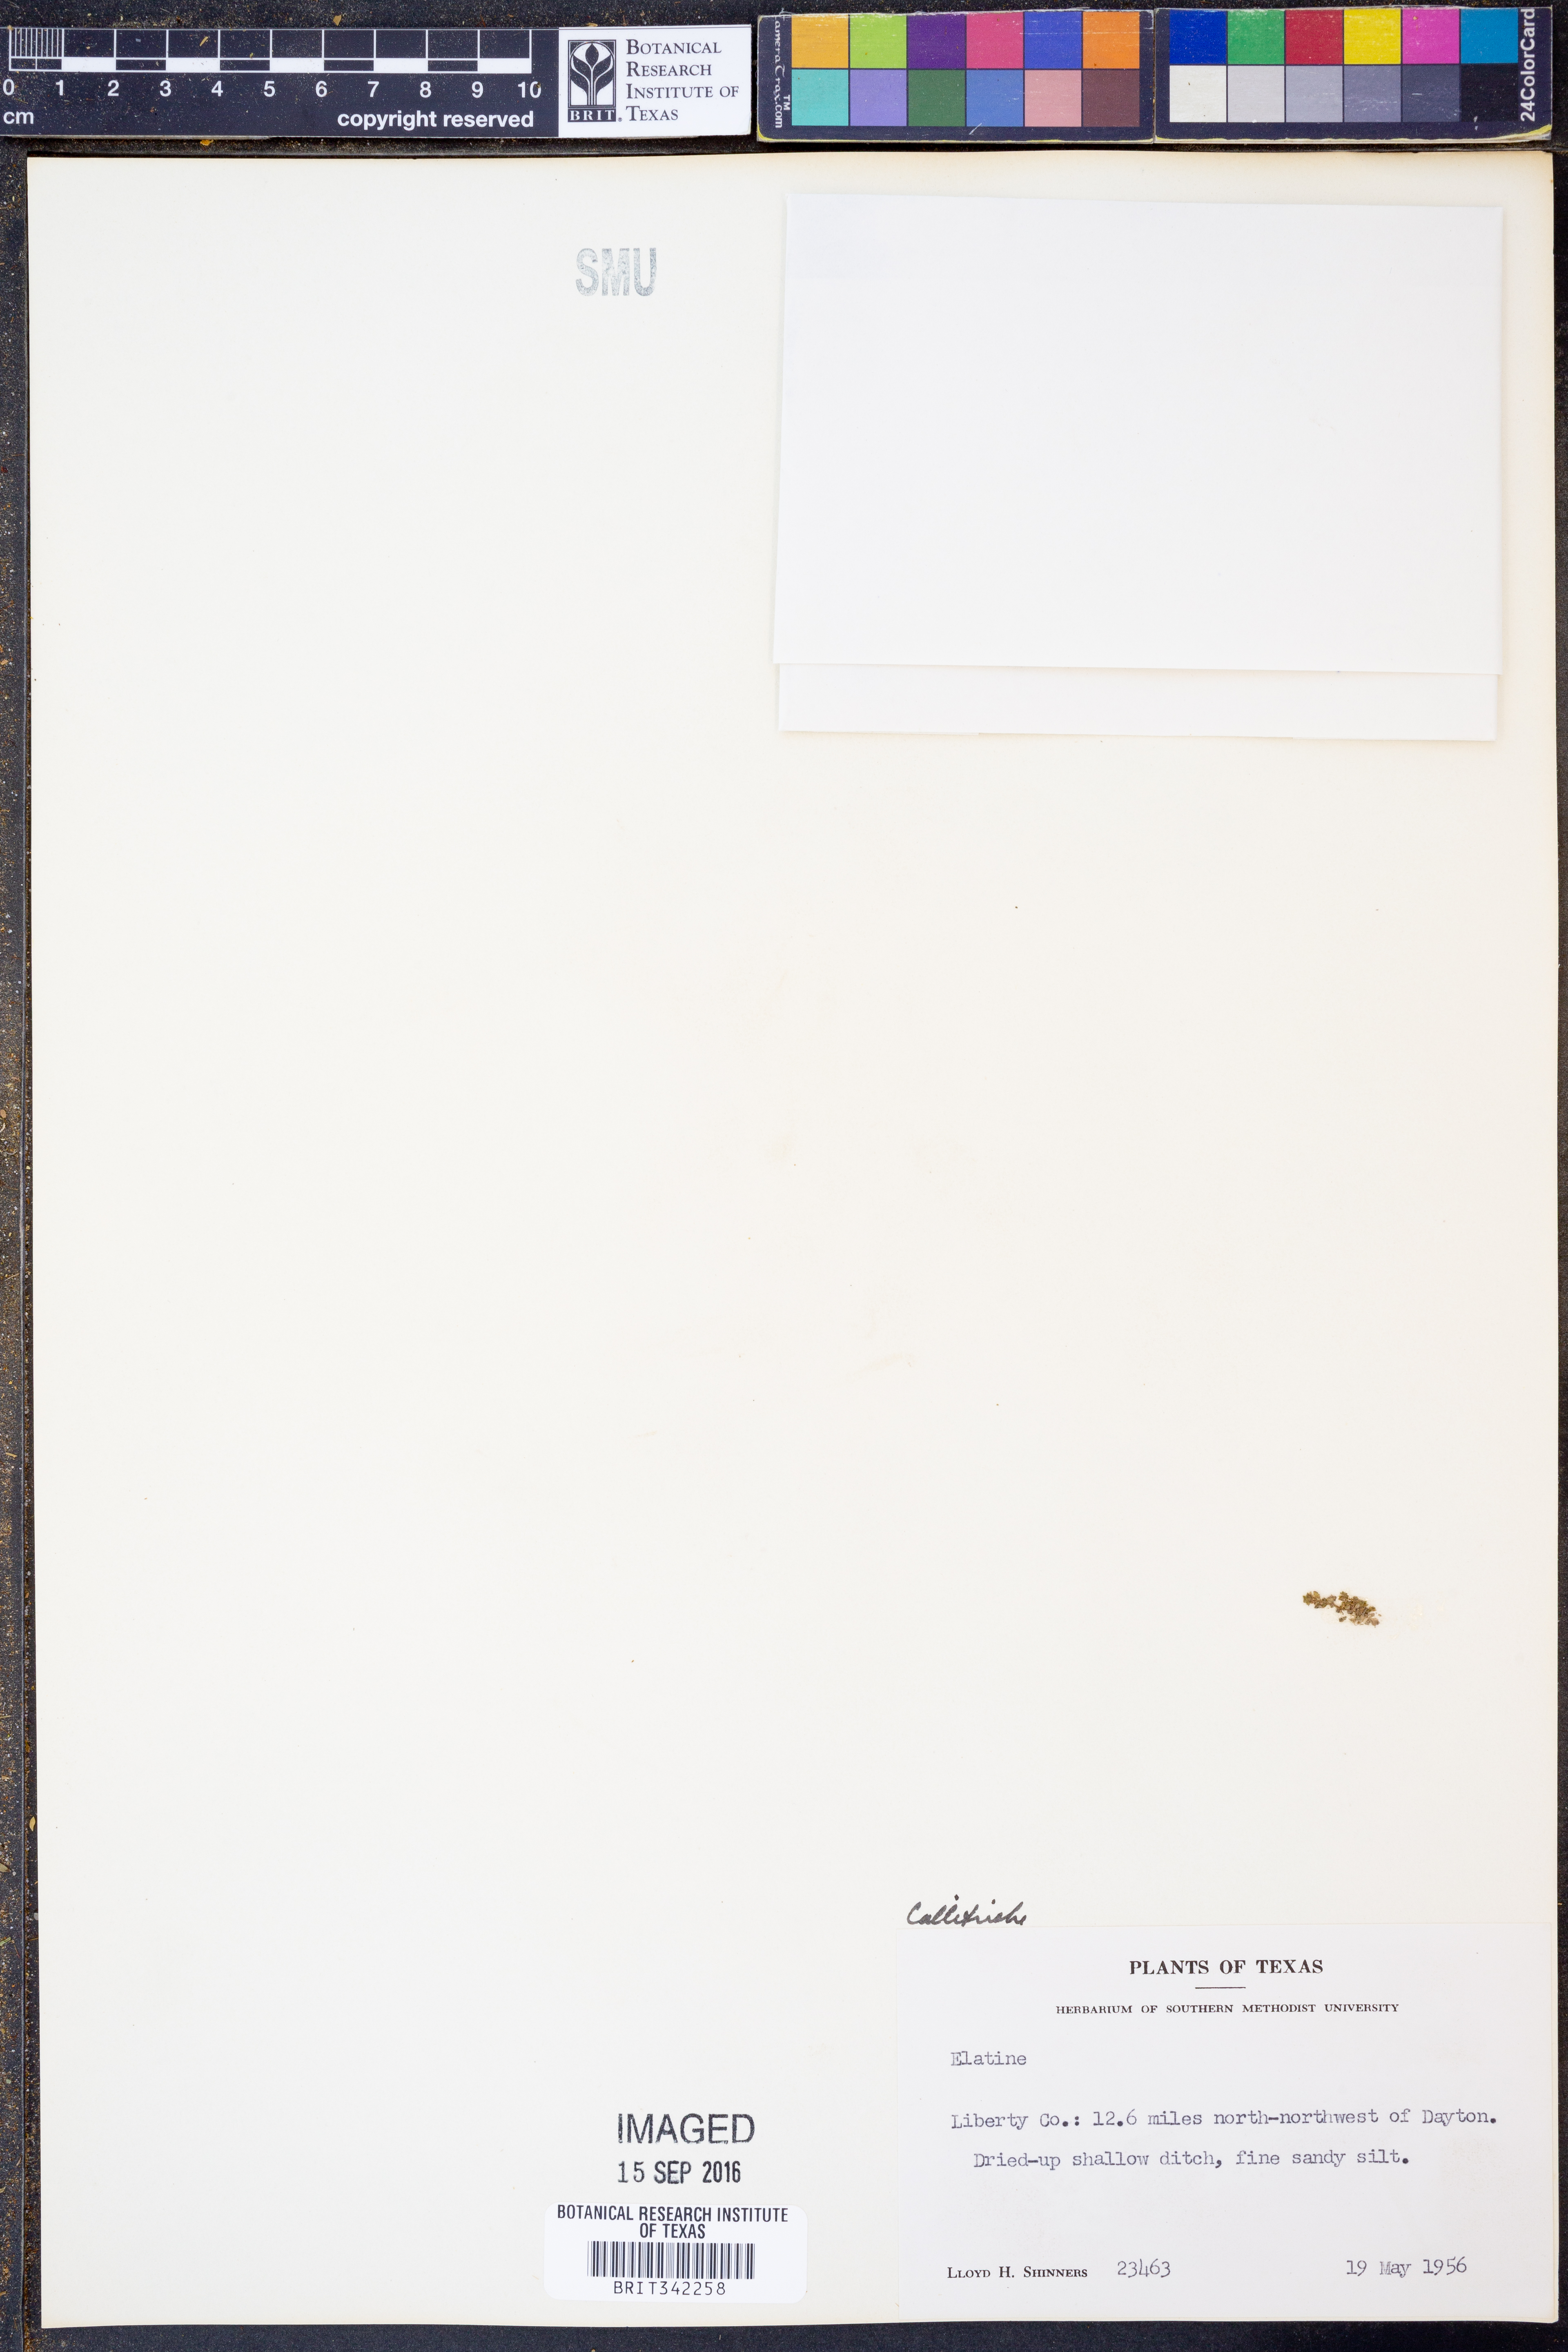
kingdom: Plantae
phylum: Tracheophyta
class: Magnoliopsida
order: Lamiales
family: Plantaginaceae
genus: Callitriche
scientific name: Callitriche
